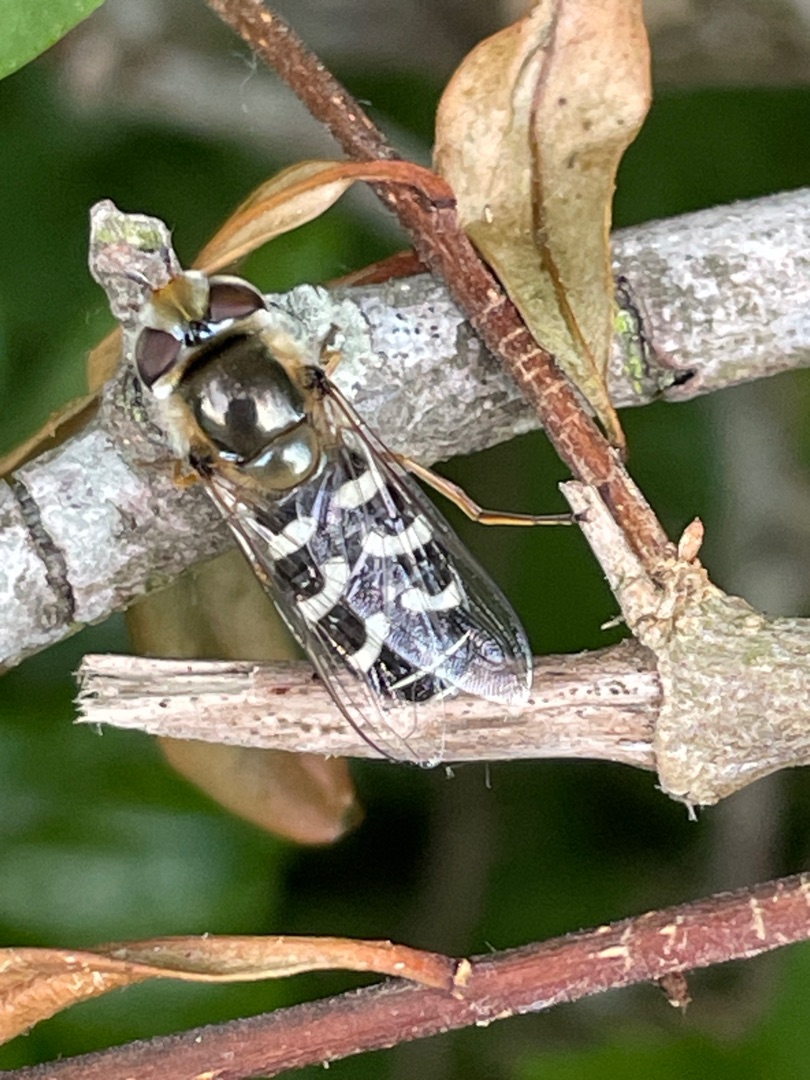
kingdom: Animalia
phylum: Arthropoda
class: Insecta
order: Diptera
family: Syrphidae
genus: Scaeva
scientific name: Scaeva pyrastri
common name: Hvidplettet agersvirreflue
